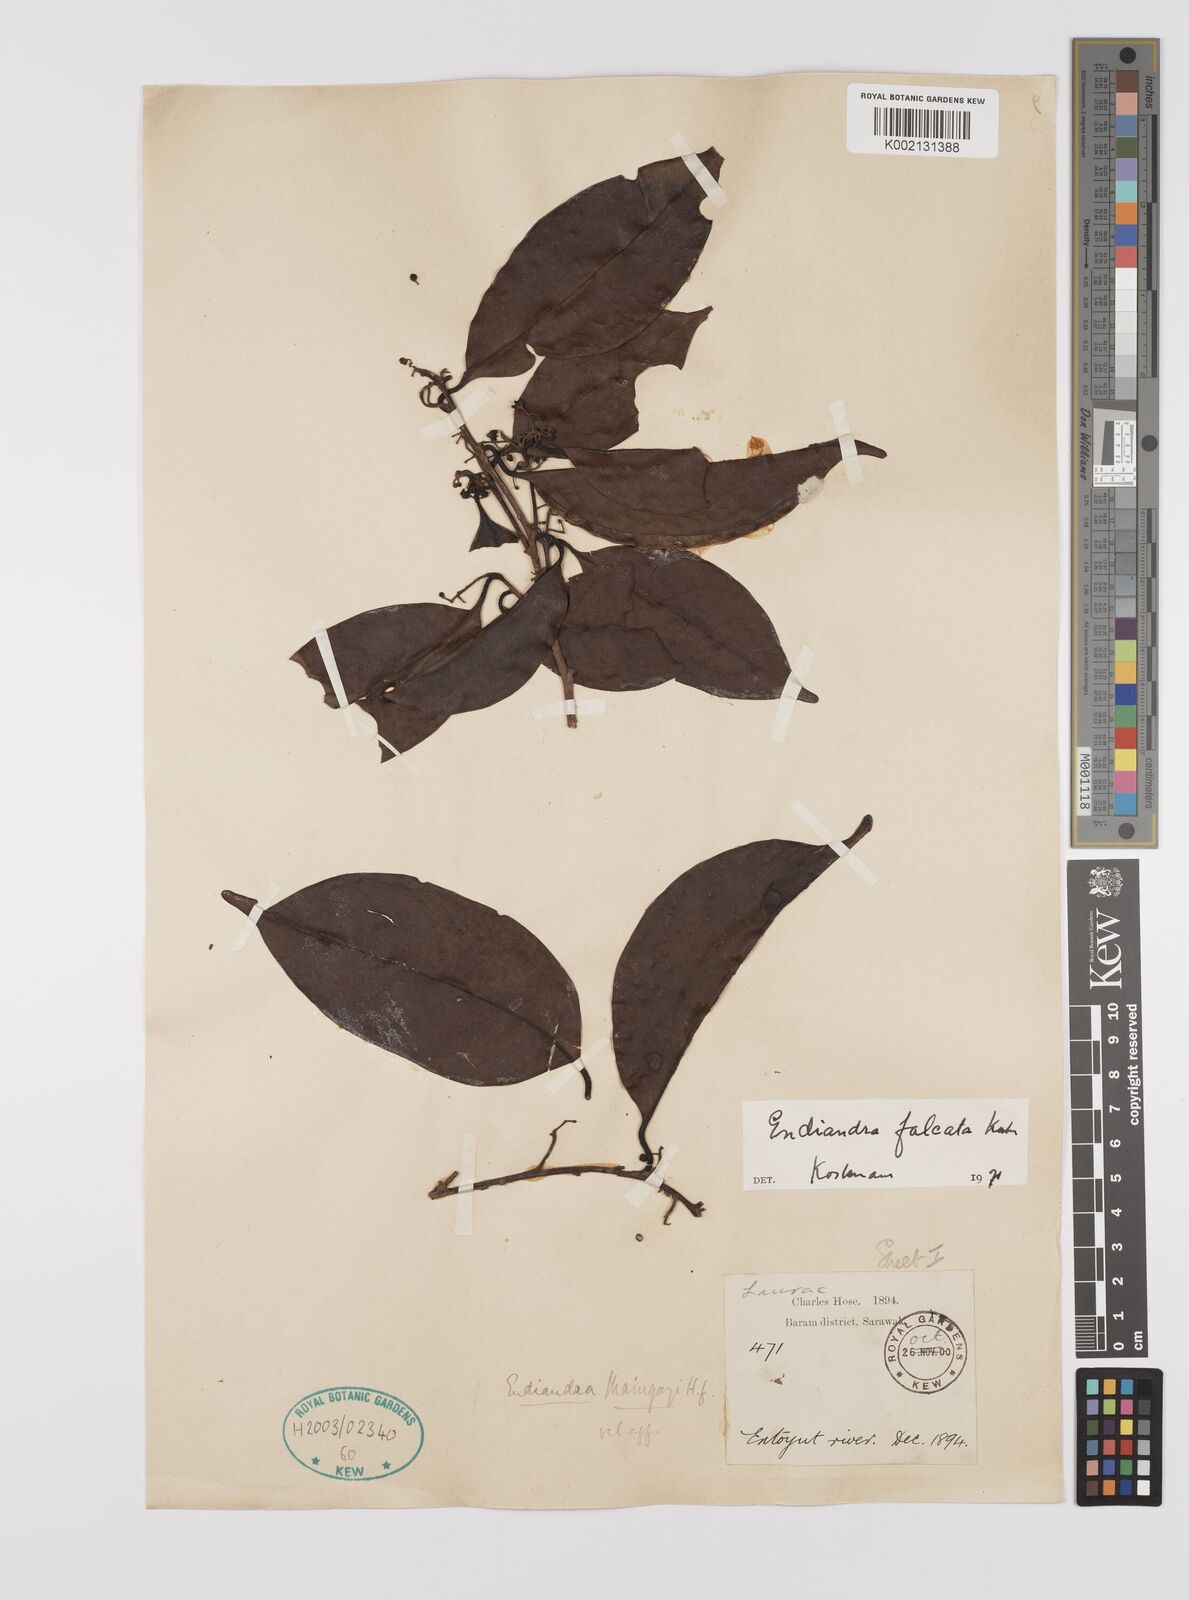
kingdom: Plantae
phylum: Tracheophyta
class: Magnoliopsida
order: Laurales
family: Lauraceae
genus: Endiandra
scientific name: Endiandra
